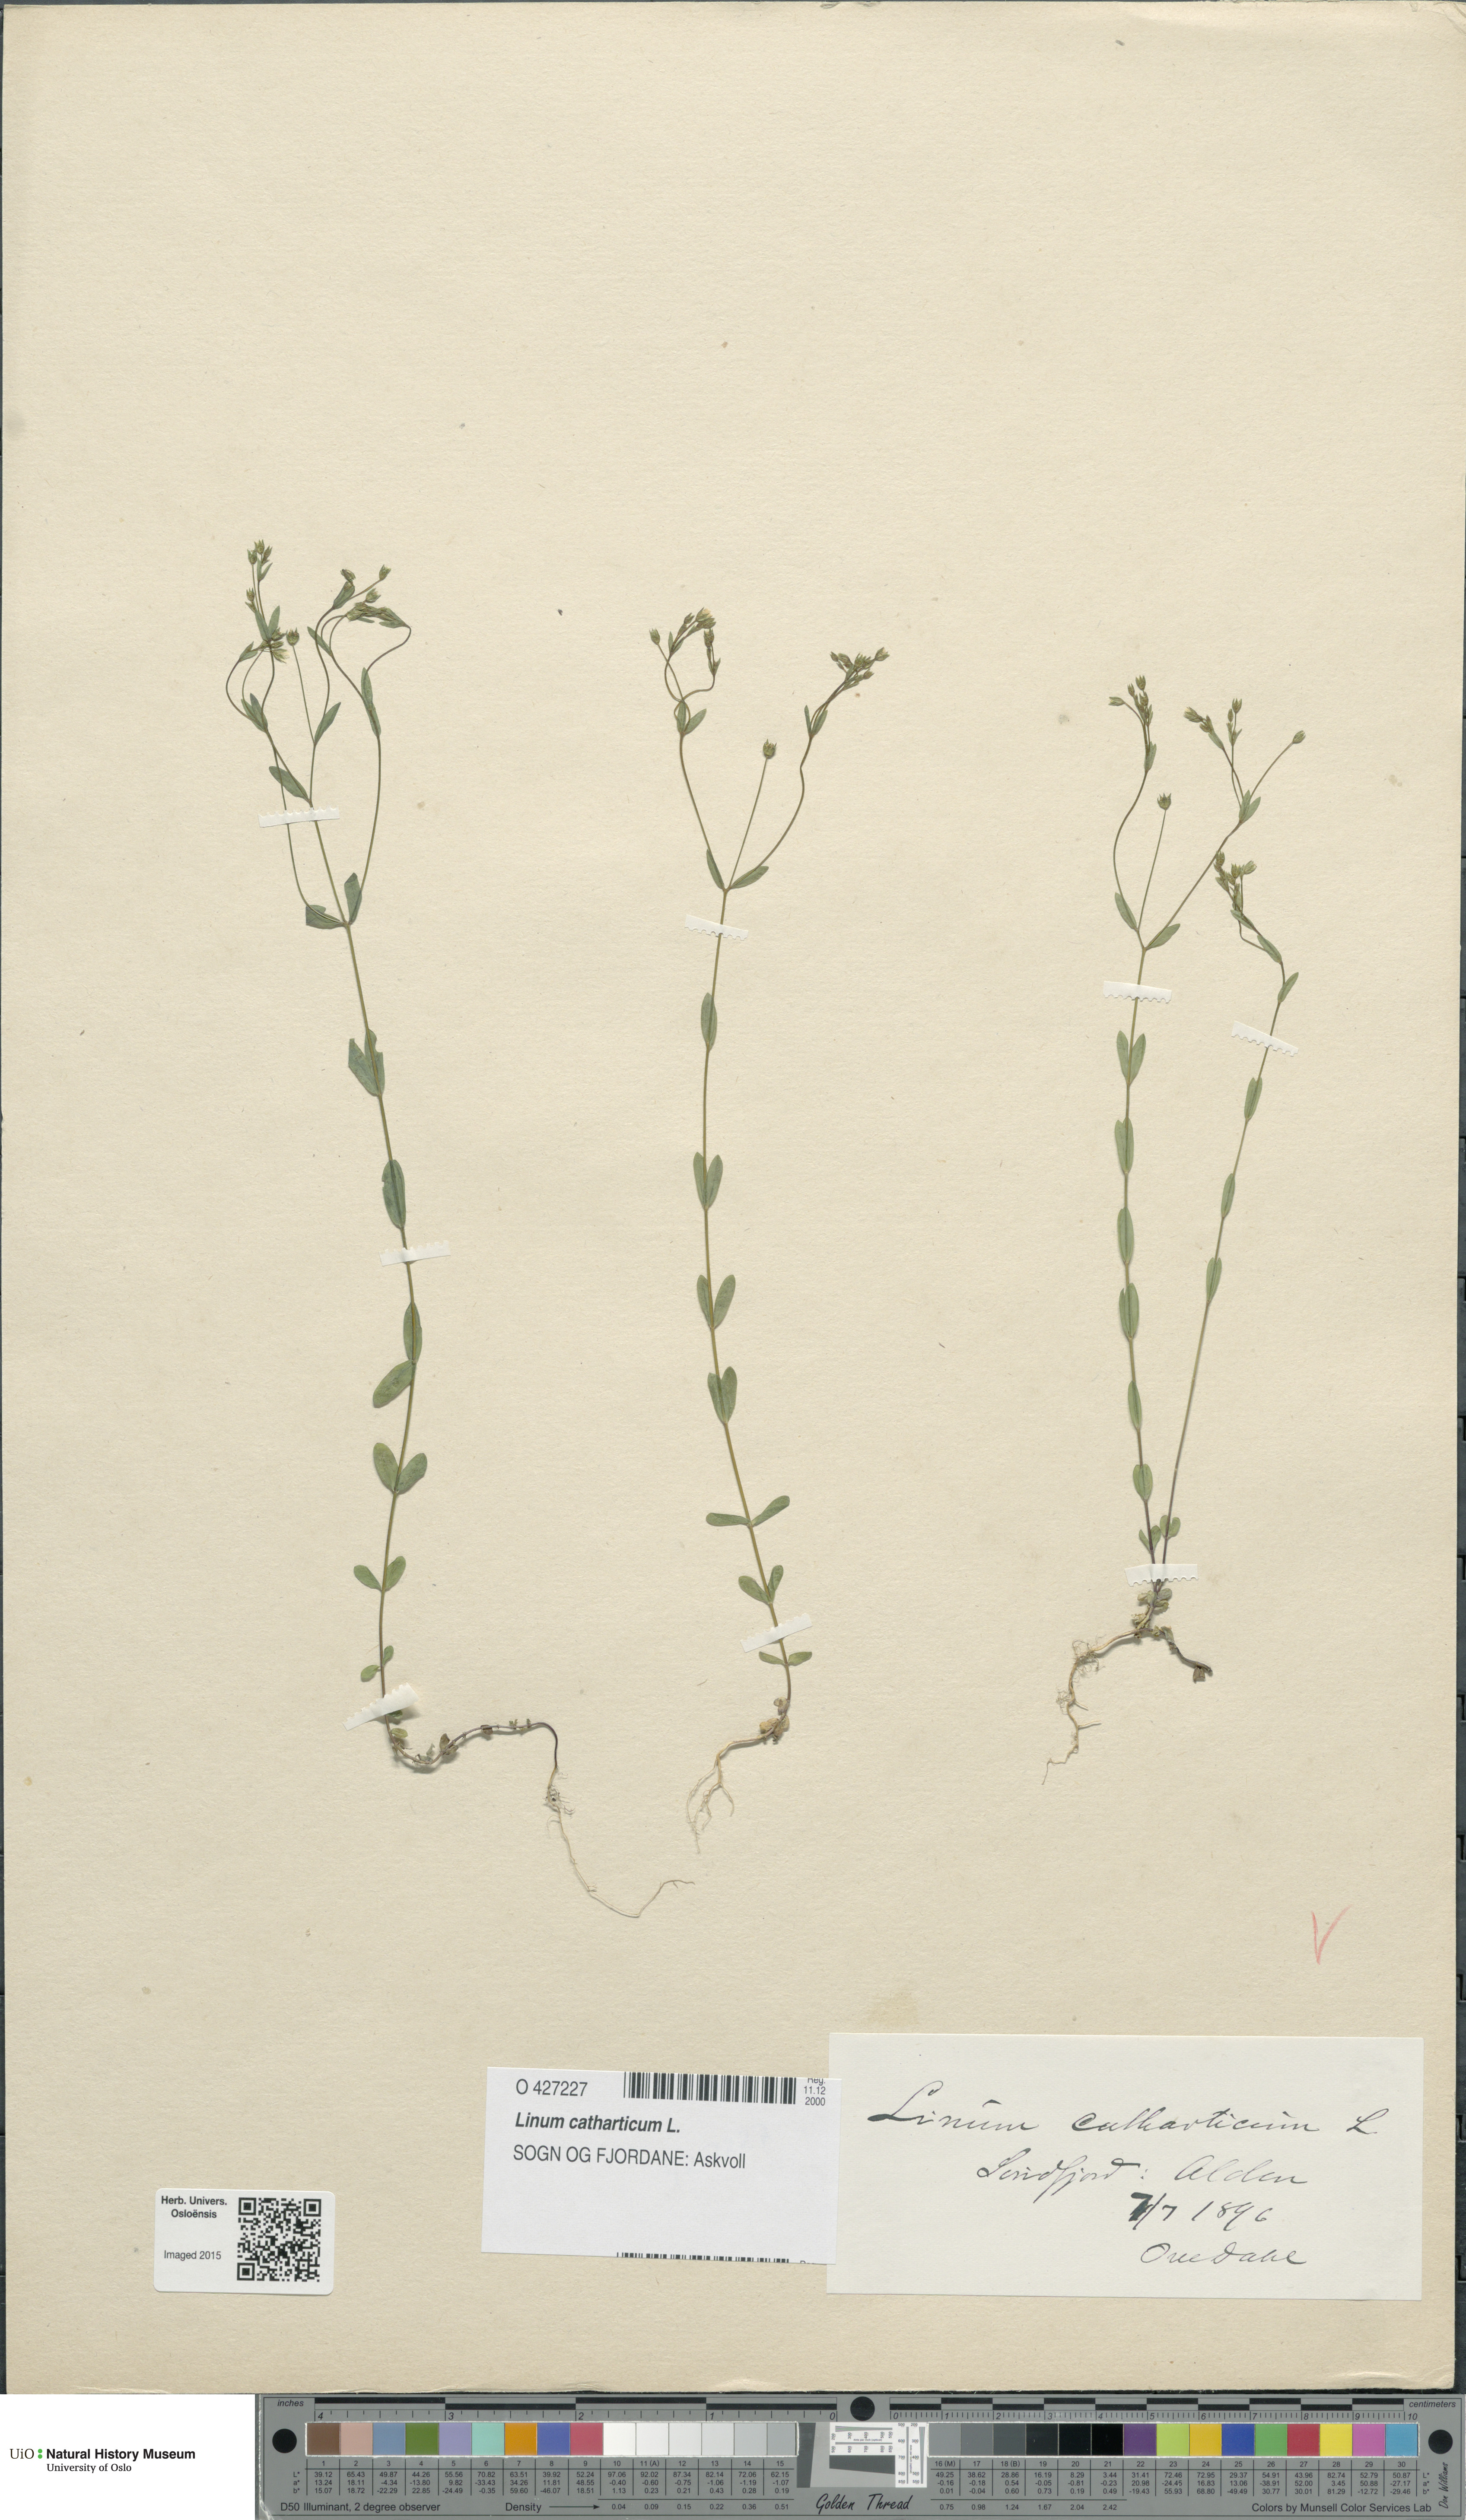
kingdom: Plantae
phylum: Tracheophyta
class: Magnoliopsida
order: Malpighiales
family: Linaceae
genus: Linum
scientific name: Linum catharticum
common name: Fairy flax
